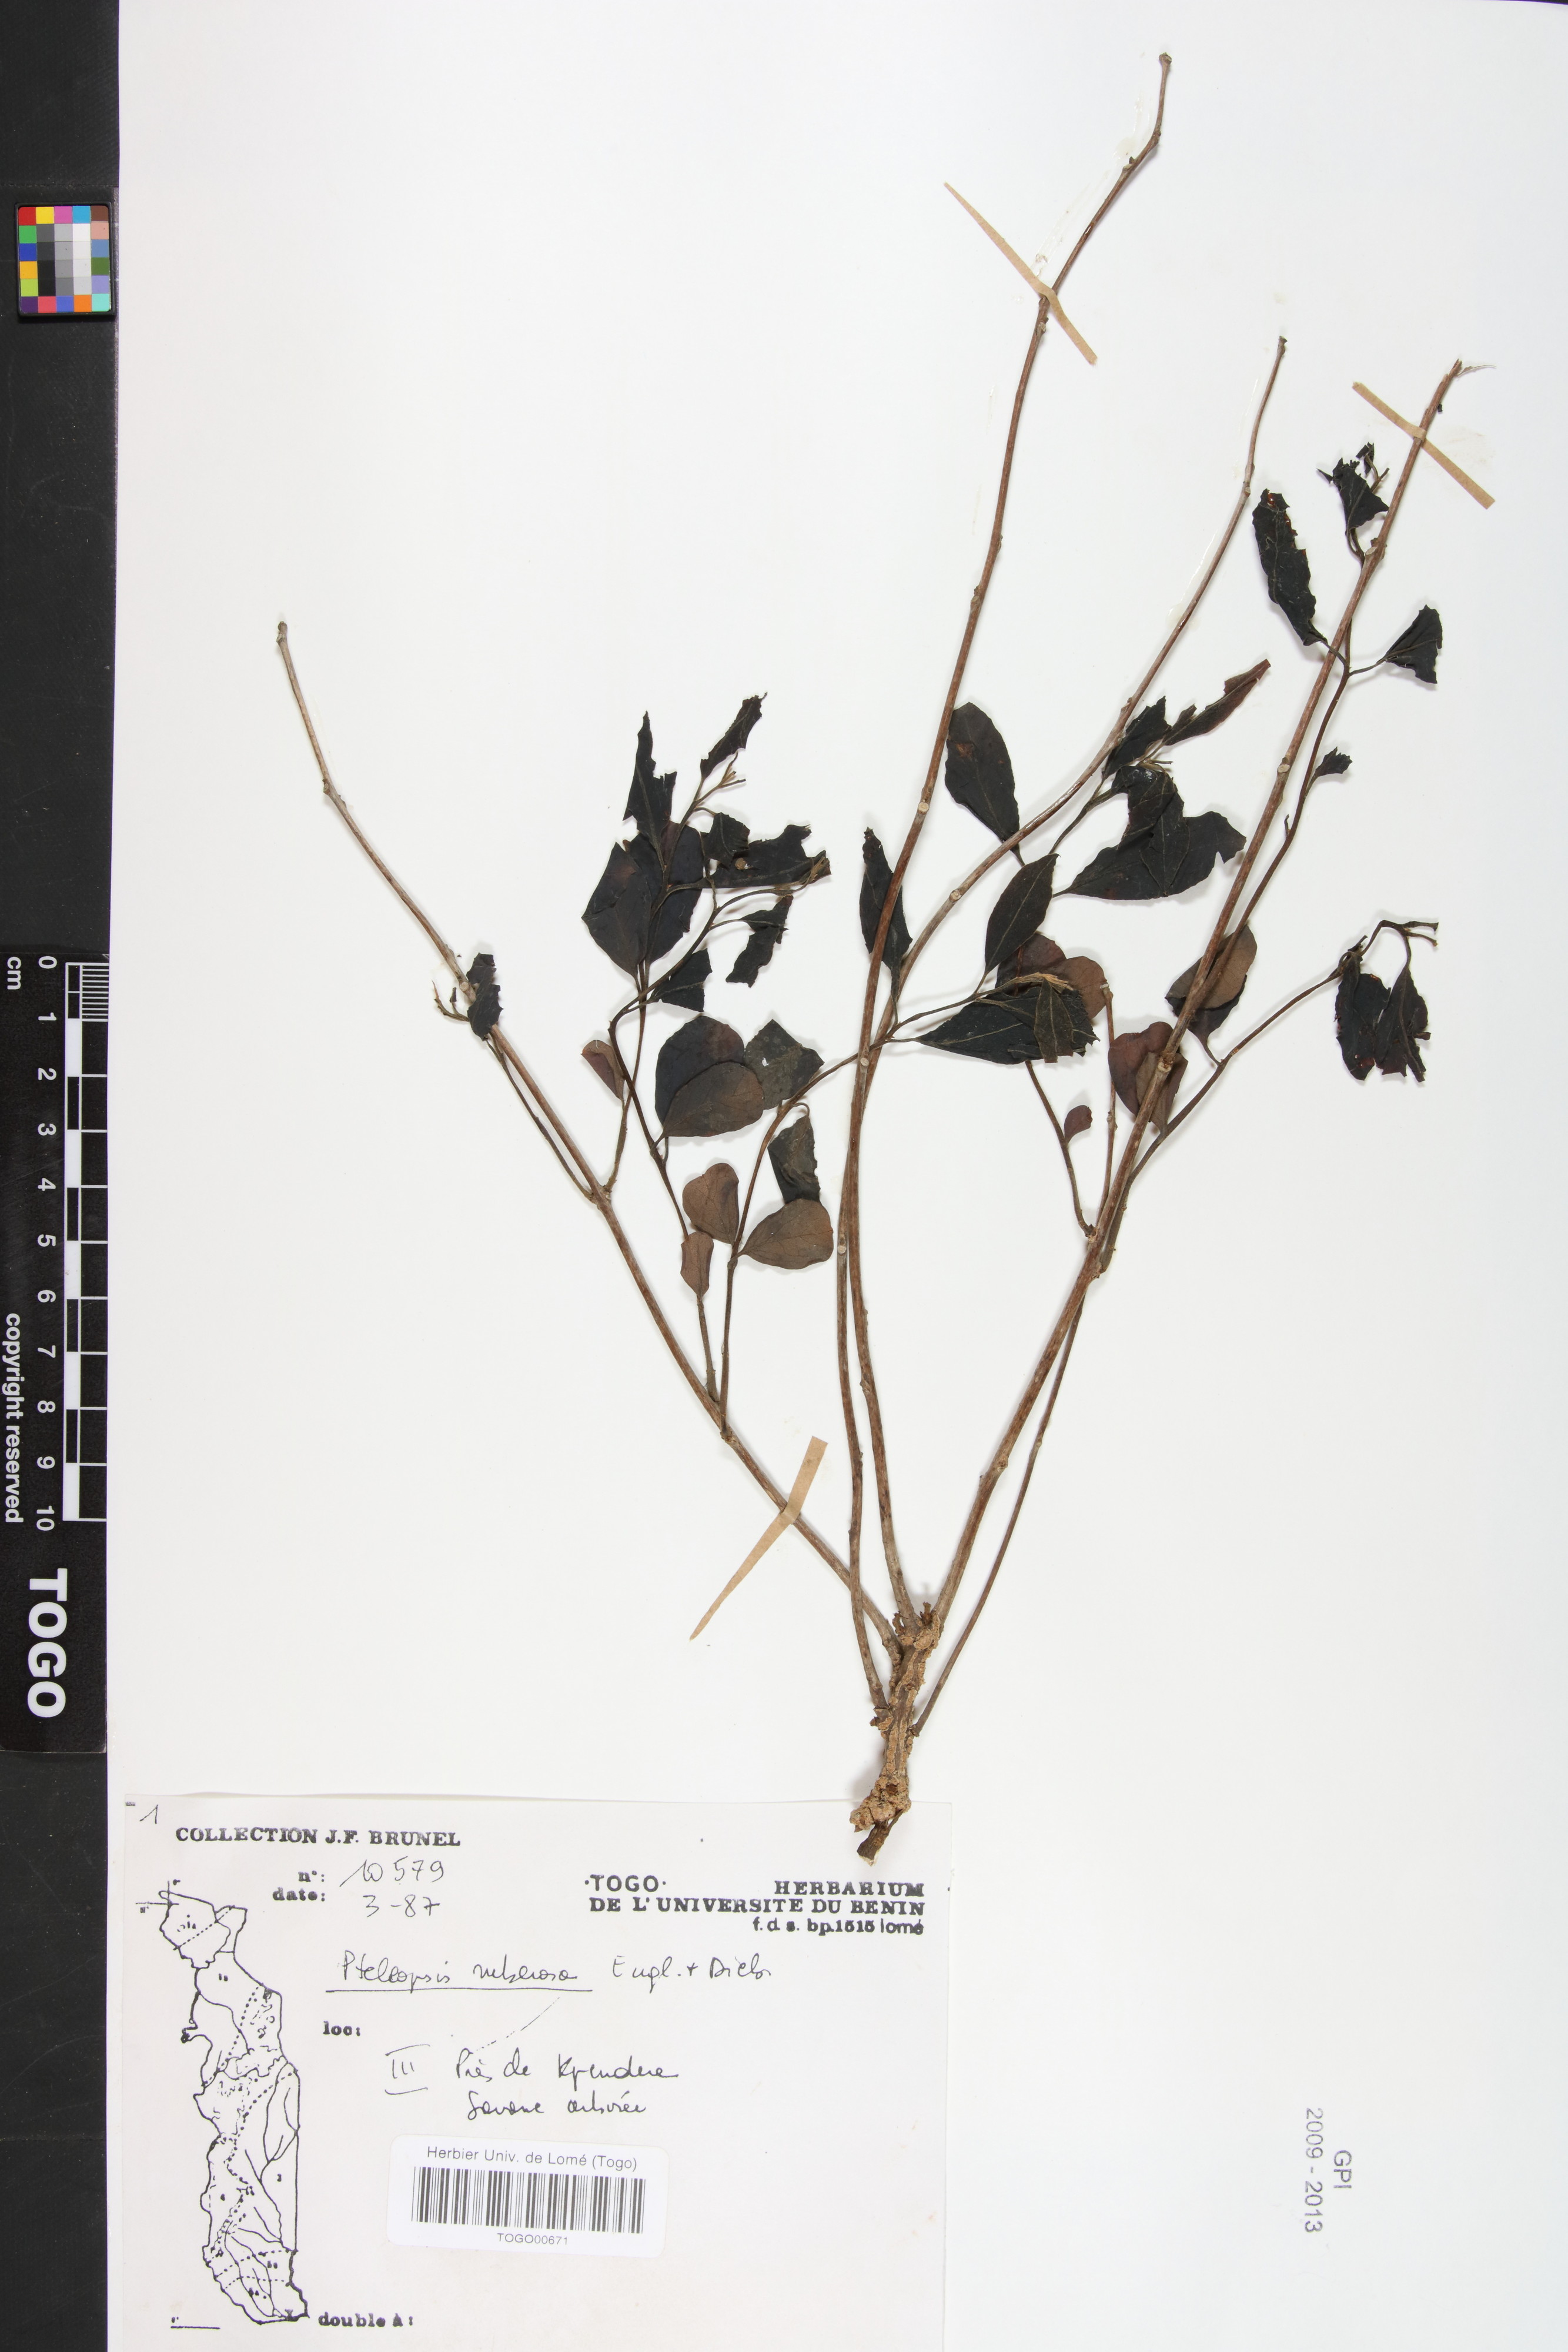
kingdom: Plantae
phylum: Tracheophyta
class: Magnoliopsida
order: Myrtales
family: Combretaceae
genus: Terminalia
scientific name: Terminalia engleri
